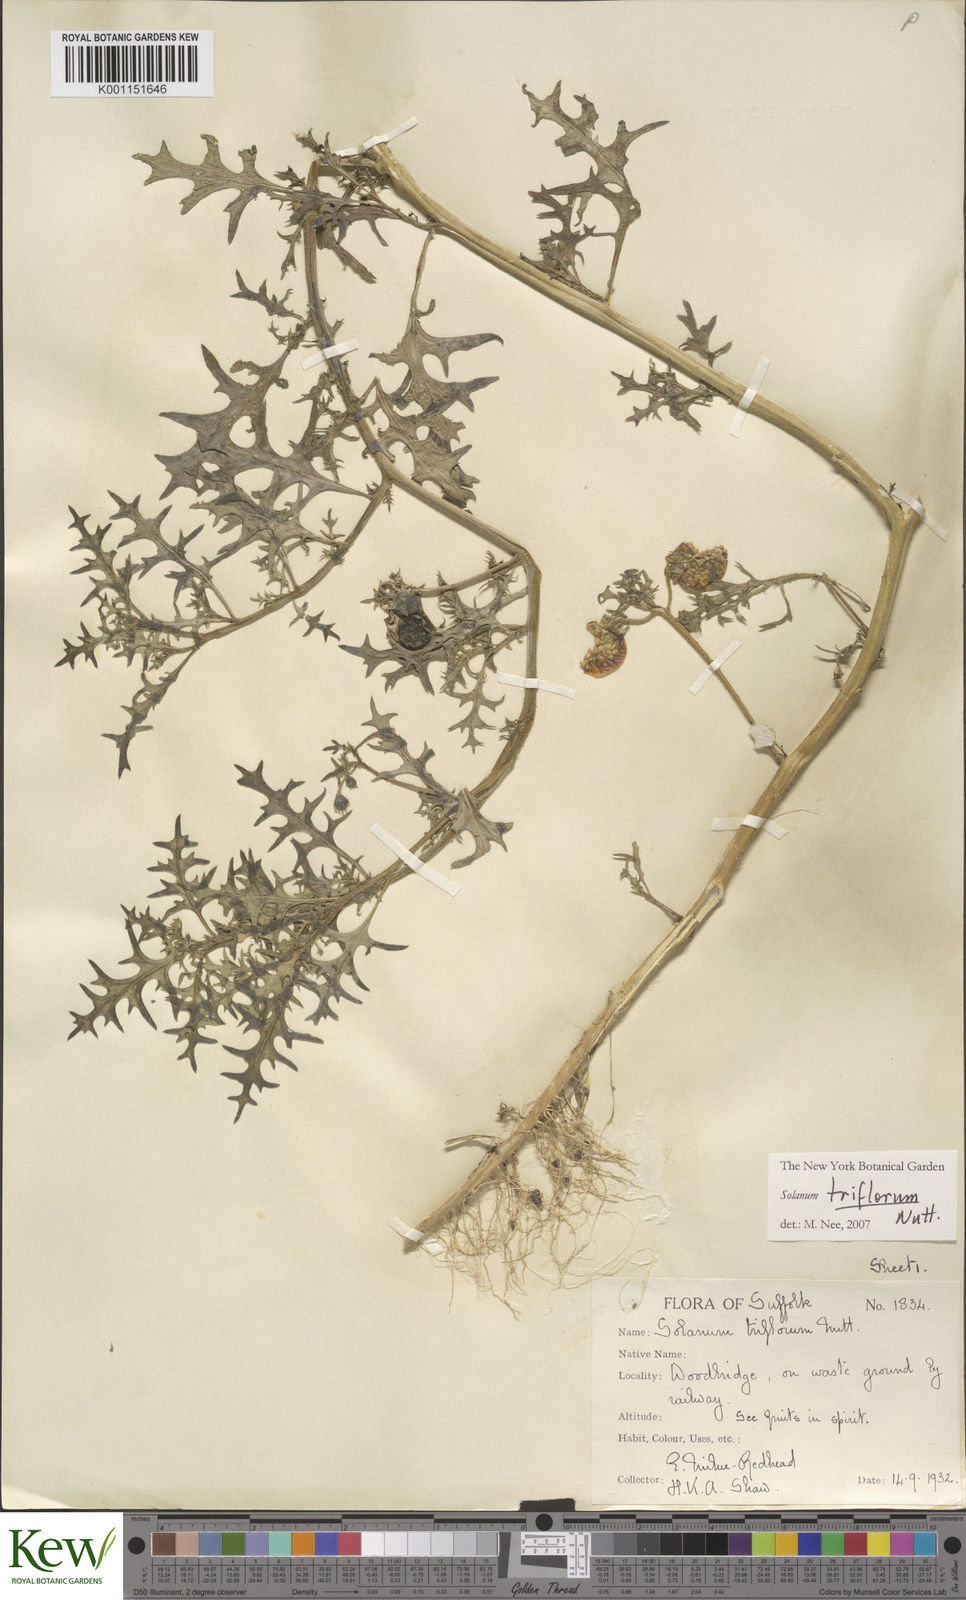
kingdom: Plantae
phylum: Tracheophyta
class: Magnoliopsida
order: Solanales
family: Solanaceae
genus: Solanum
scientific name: Solanum triflorum
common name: Small nightshade
